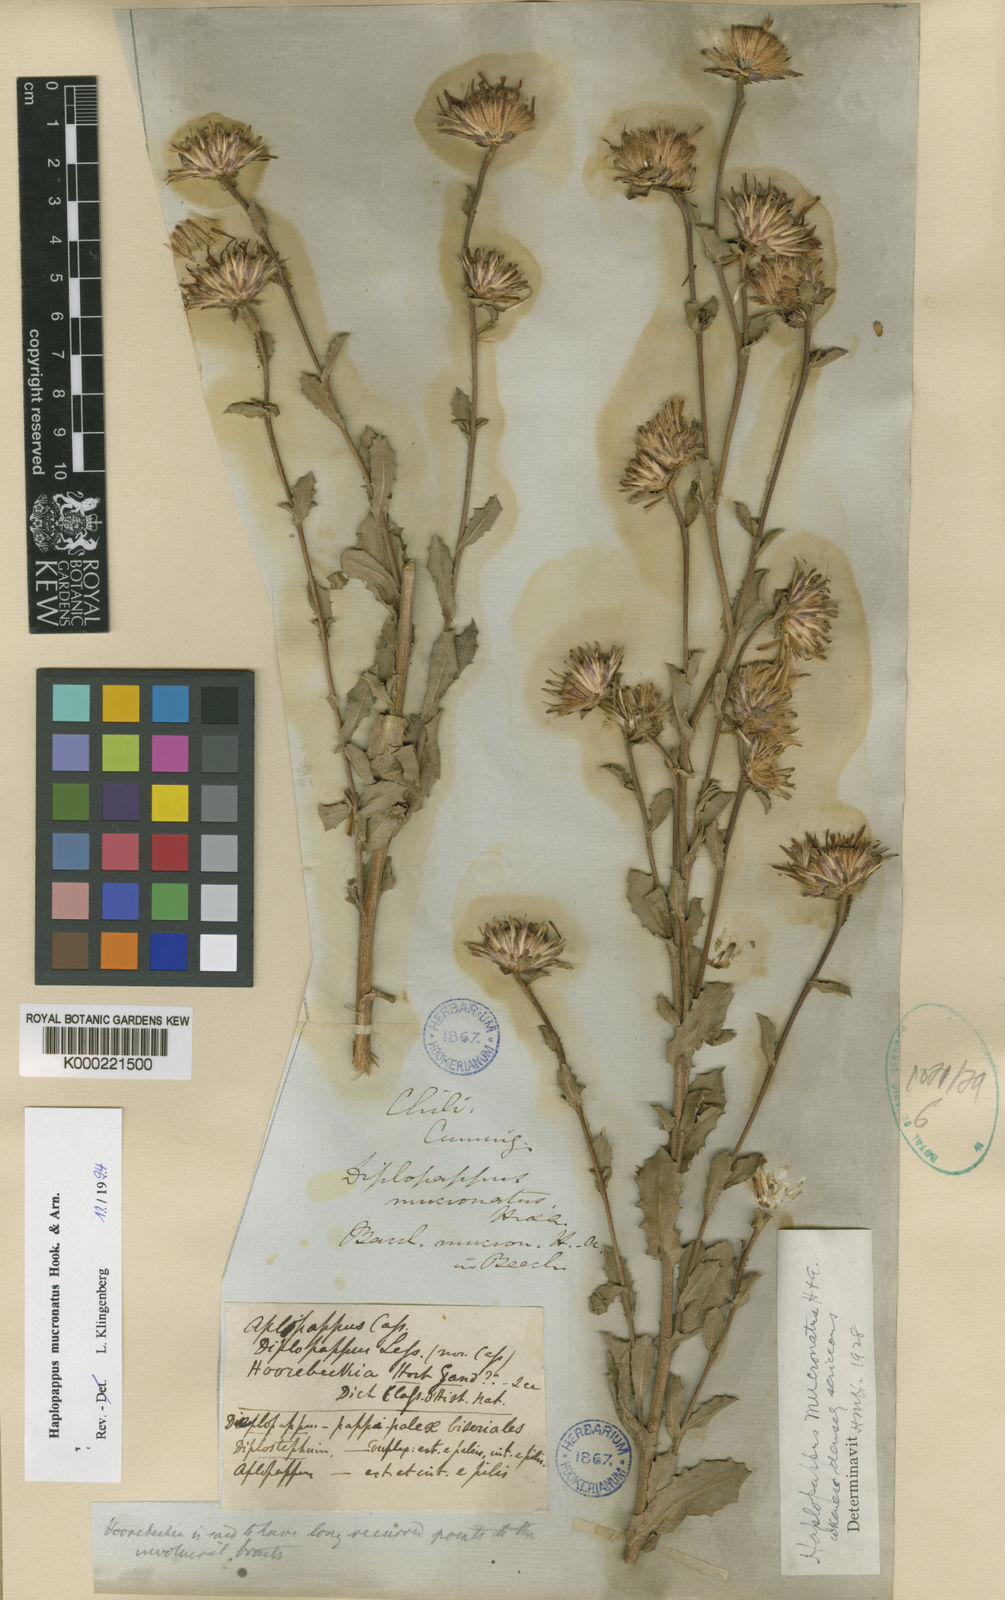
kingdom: Plantae
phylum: Tracheophyta
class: Magnoliopsida
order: Asterales
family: Asteraceae
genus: Haplopappus
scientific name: Haplopappus mucronatus
